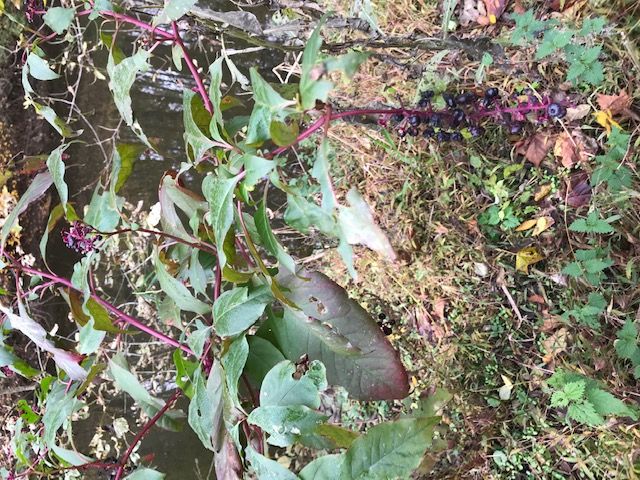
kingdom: Plantae
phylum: Tracheophyta
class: Magnoliopsida
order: Caryophyllales
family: Phytolaccaceae
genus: Phytolacca
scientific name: Phytolacca americana
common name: Pokeweed
